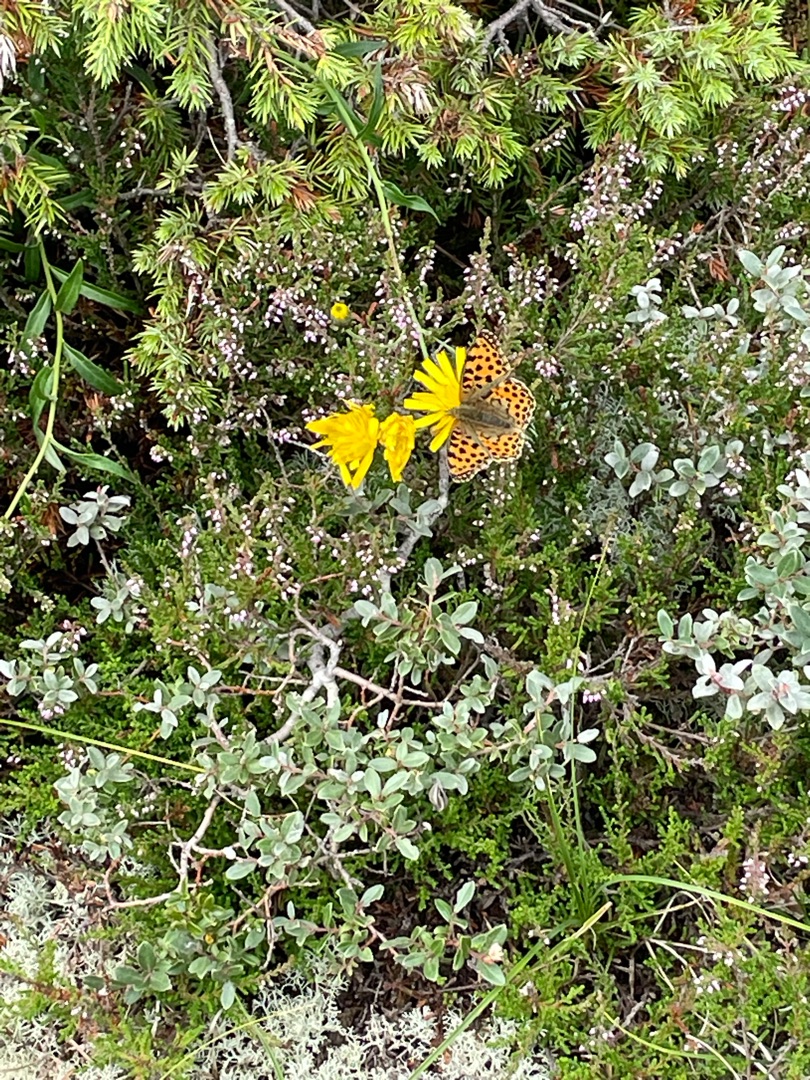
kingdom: Animalia
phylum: Arthropoda
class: Insecta
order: Lepidoptera
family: Nymphalidae
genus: Issoria
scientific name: Issoria lathonia
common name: Storplettet perlemorsommerfugl
